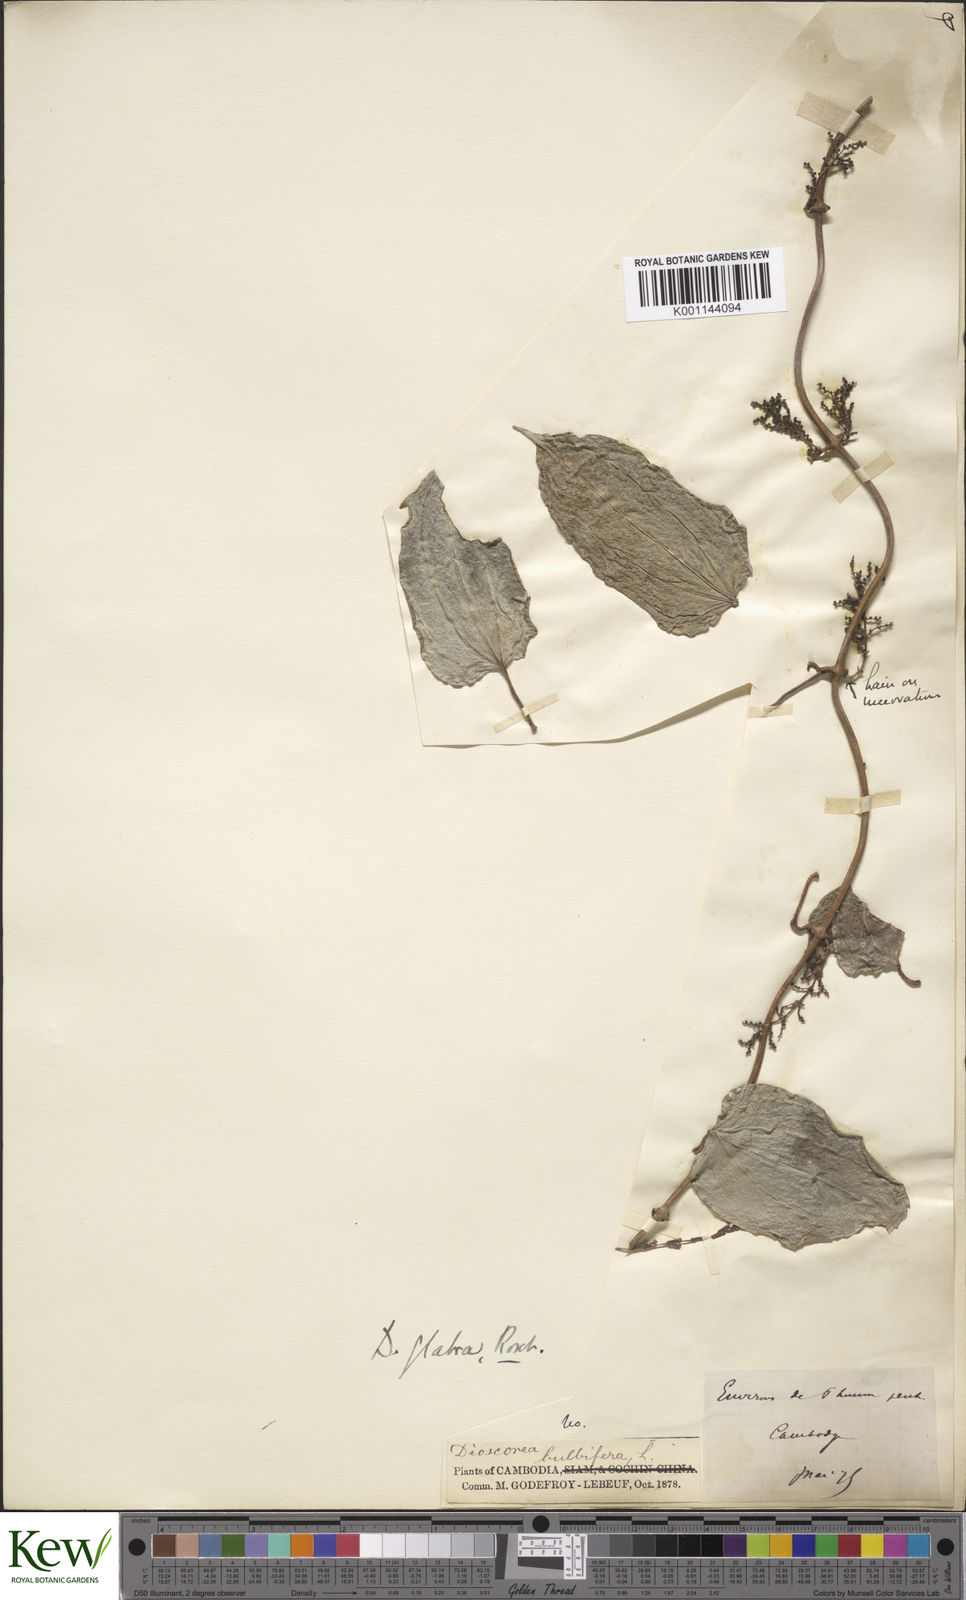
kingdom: Plantae
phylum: Tracheophyta
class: Liliopsida
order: Dioscoreales
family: Dioscoreaceae
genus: Dioscorea
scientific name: Dioscorea glabra
